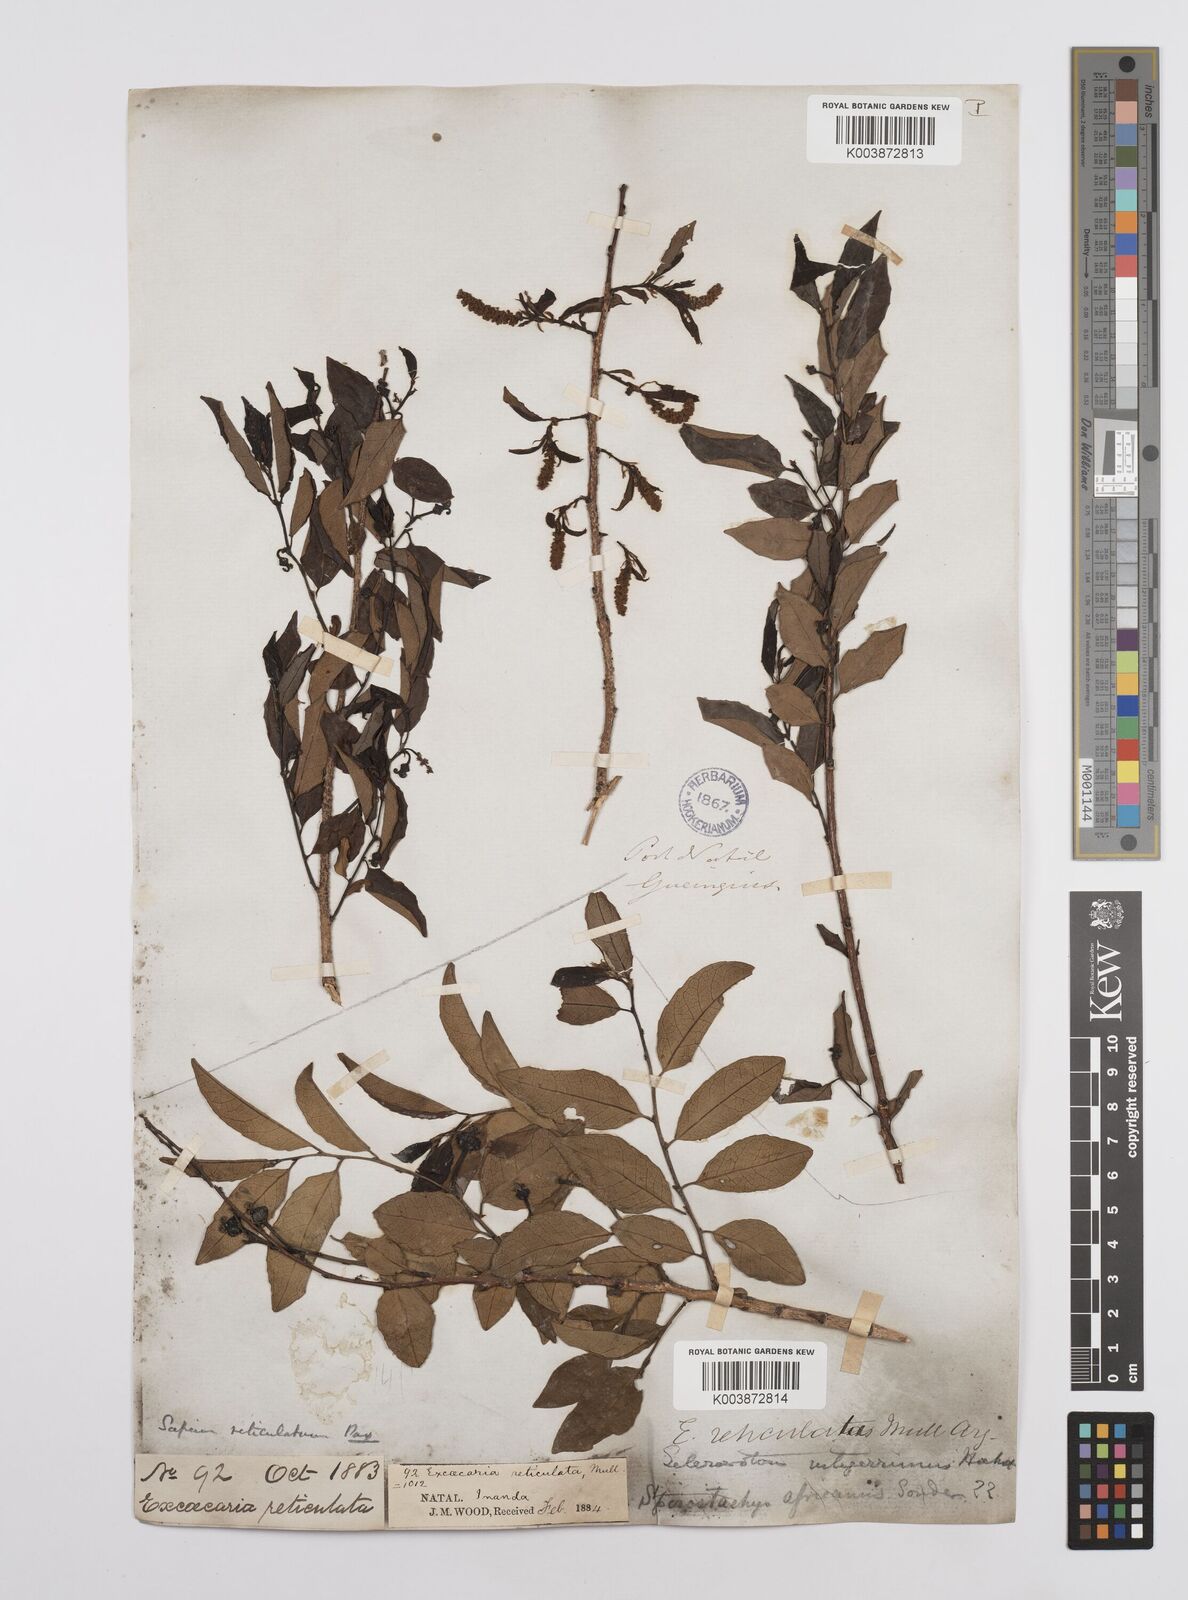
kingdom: Plantae
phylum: Tracheophyta
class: Magnoliopsida
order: Malpighiales
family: Euphorbiaceae
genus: Sclerocroton
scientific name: Sclerocroton integerrimus
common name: Duiker berry
